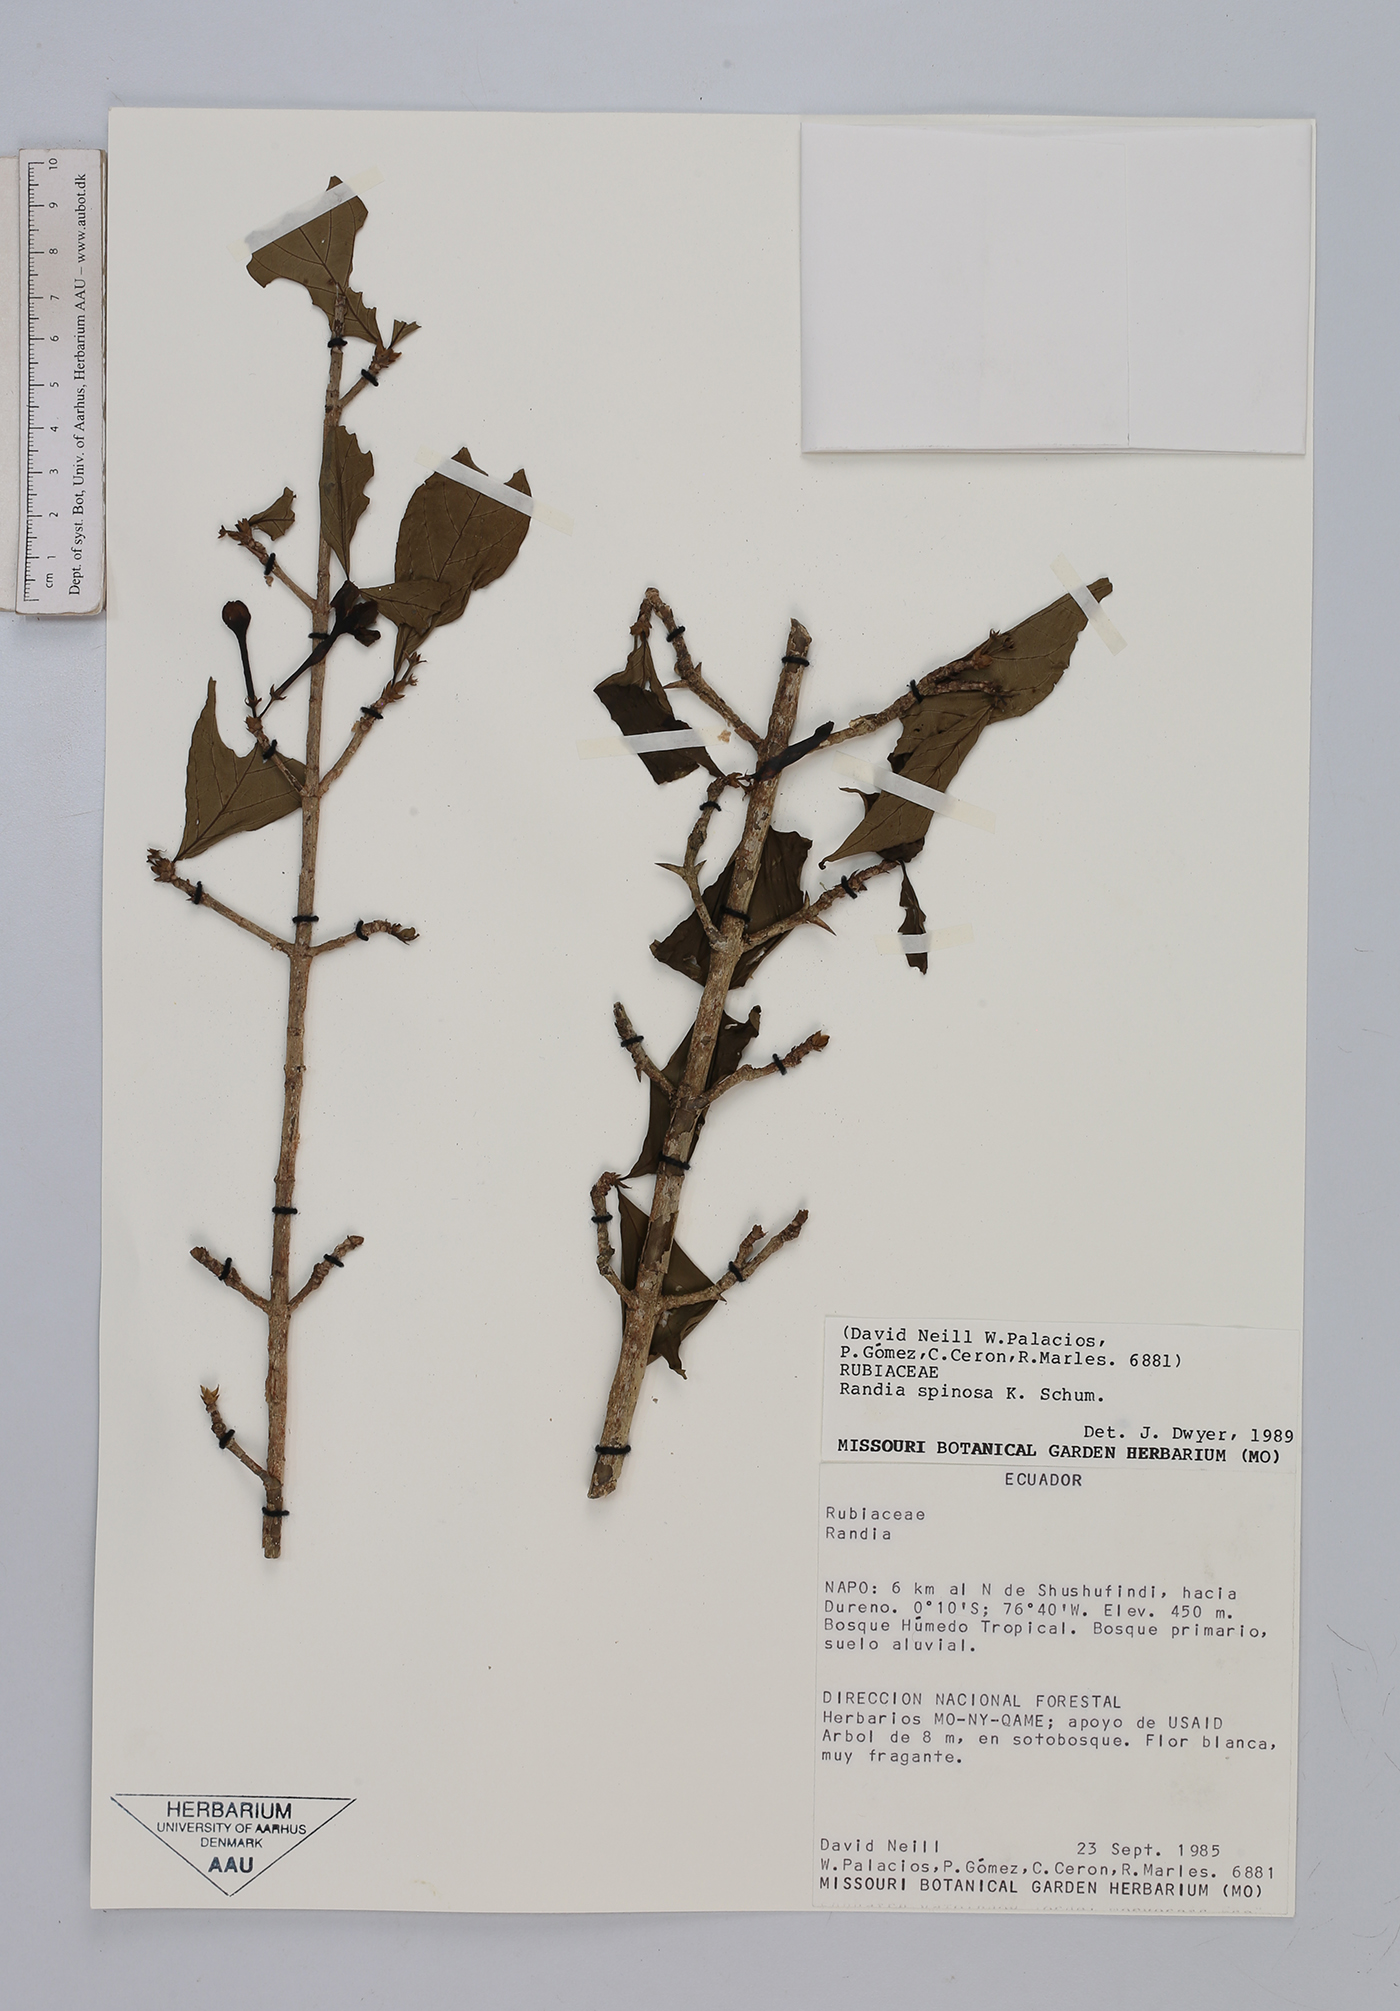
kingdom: Plantae
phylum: Tracheophyta
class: Magnoliopsida
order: Gentianales
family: Rubiaceae
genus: Randia
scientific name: Randia spinosa
